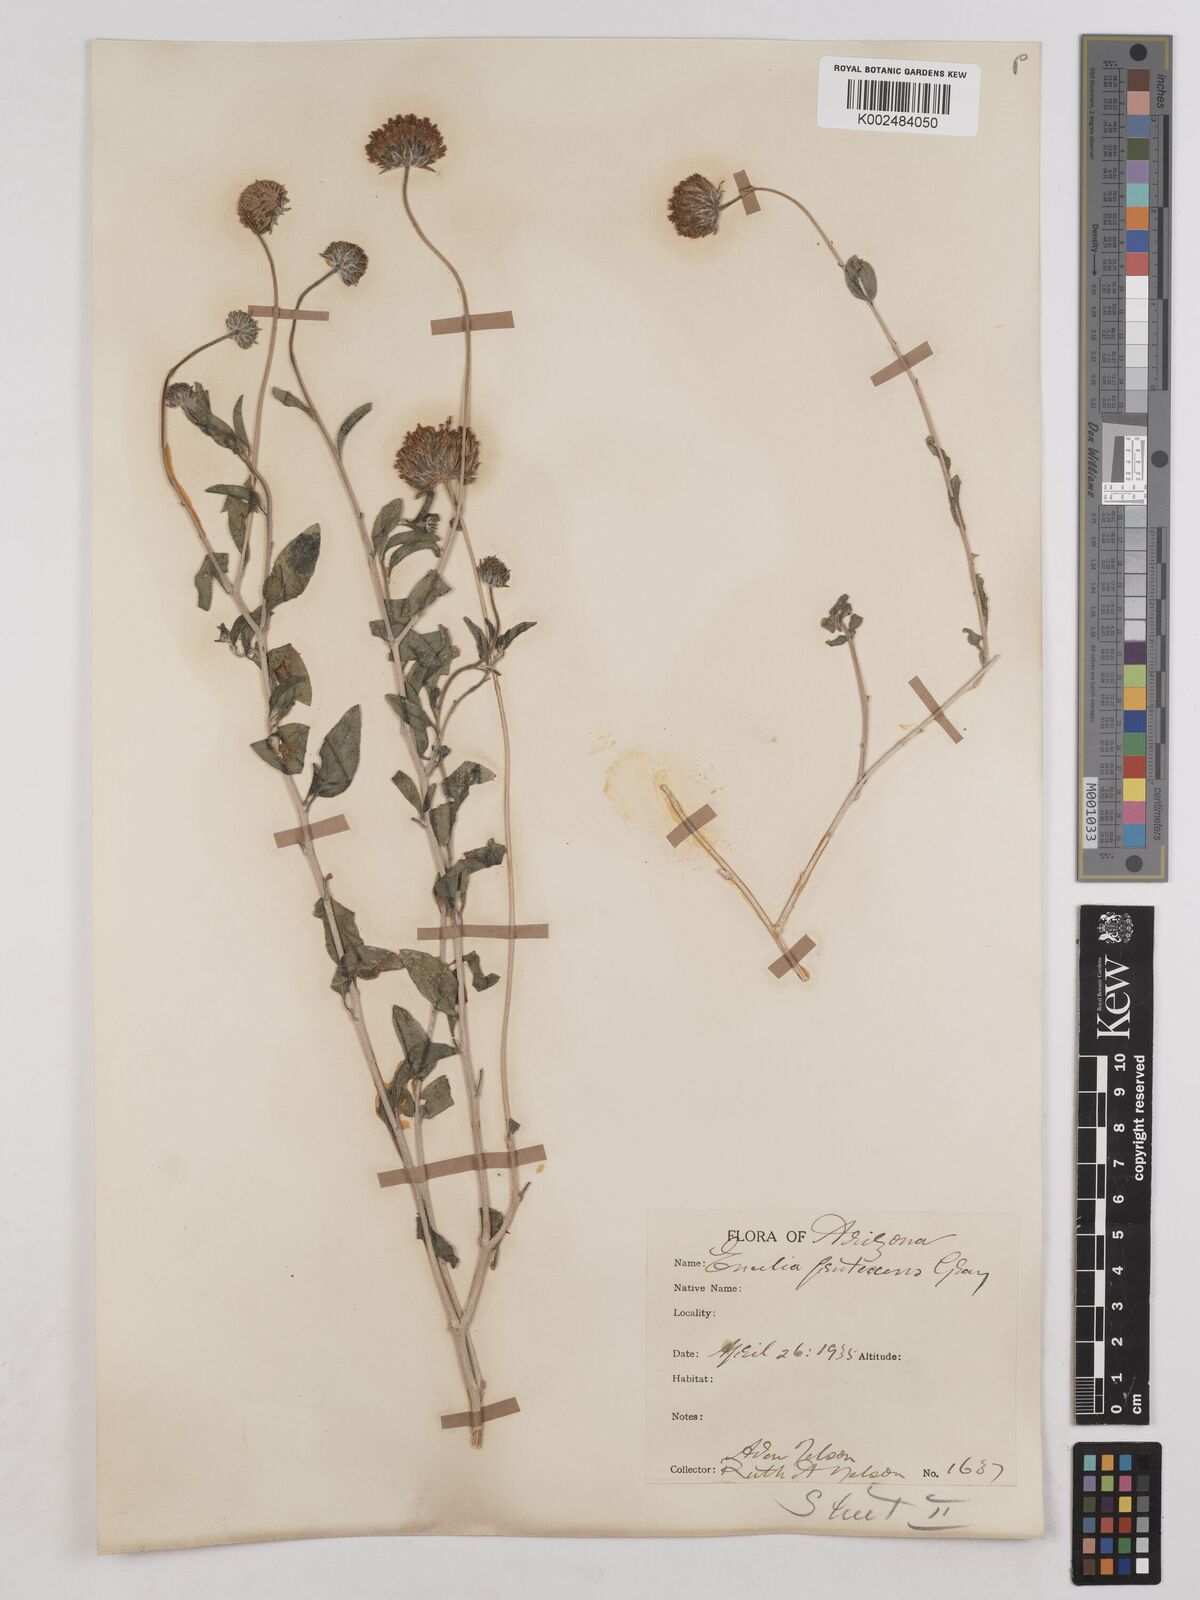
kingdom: Plantae
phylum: Tracheophyta
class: Magnoliopsida
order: Asterales
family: Asteraceae
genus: Encelia
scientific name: Encelia frutescens
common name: Bush encelia
